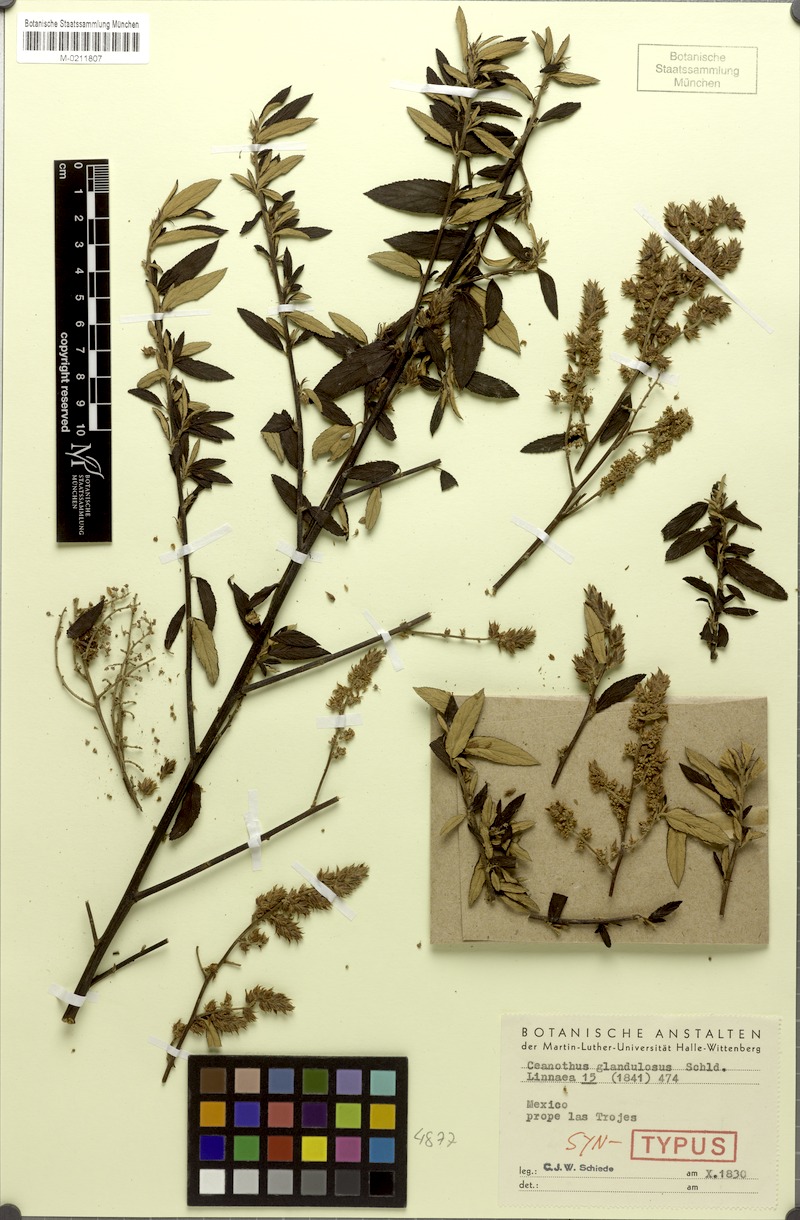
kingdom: Plantae
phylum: Tracheophyta
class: Magnoliopsida
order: Rosales
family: Rhamnaceae
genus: Ceanothus
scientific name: Ceanothus caeruleus
